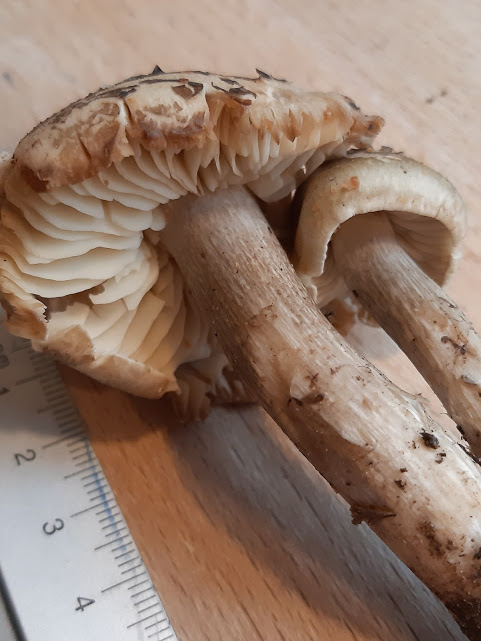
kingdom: Fungi
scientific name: Fungi
